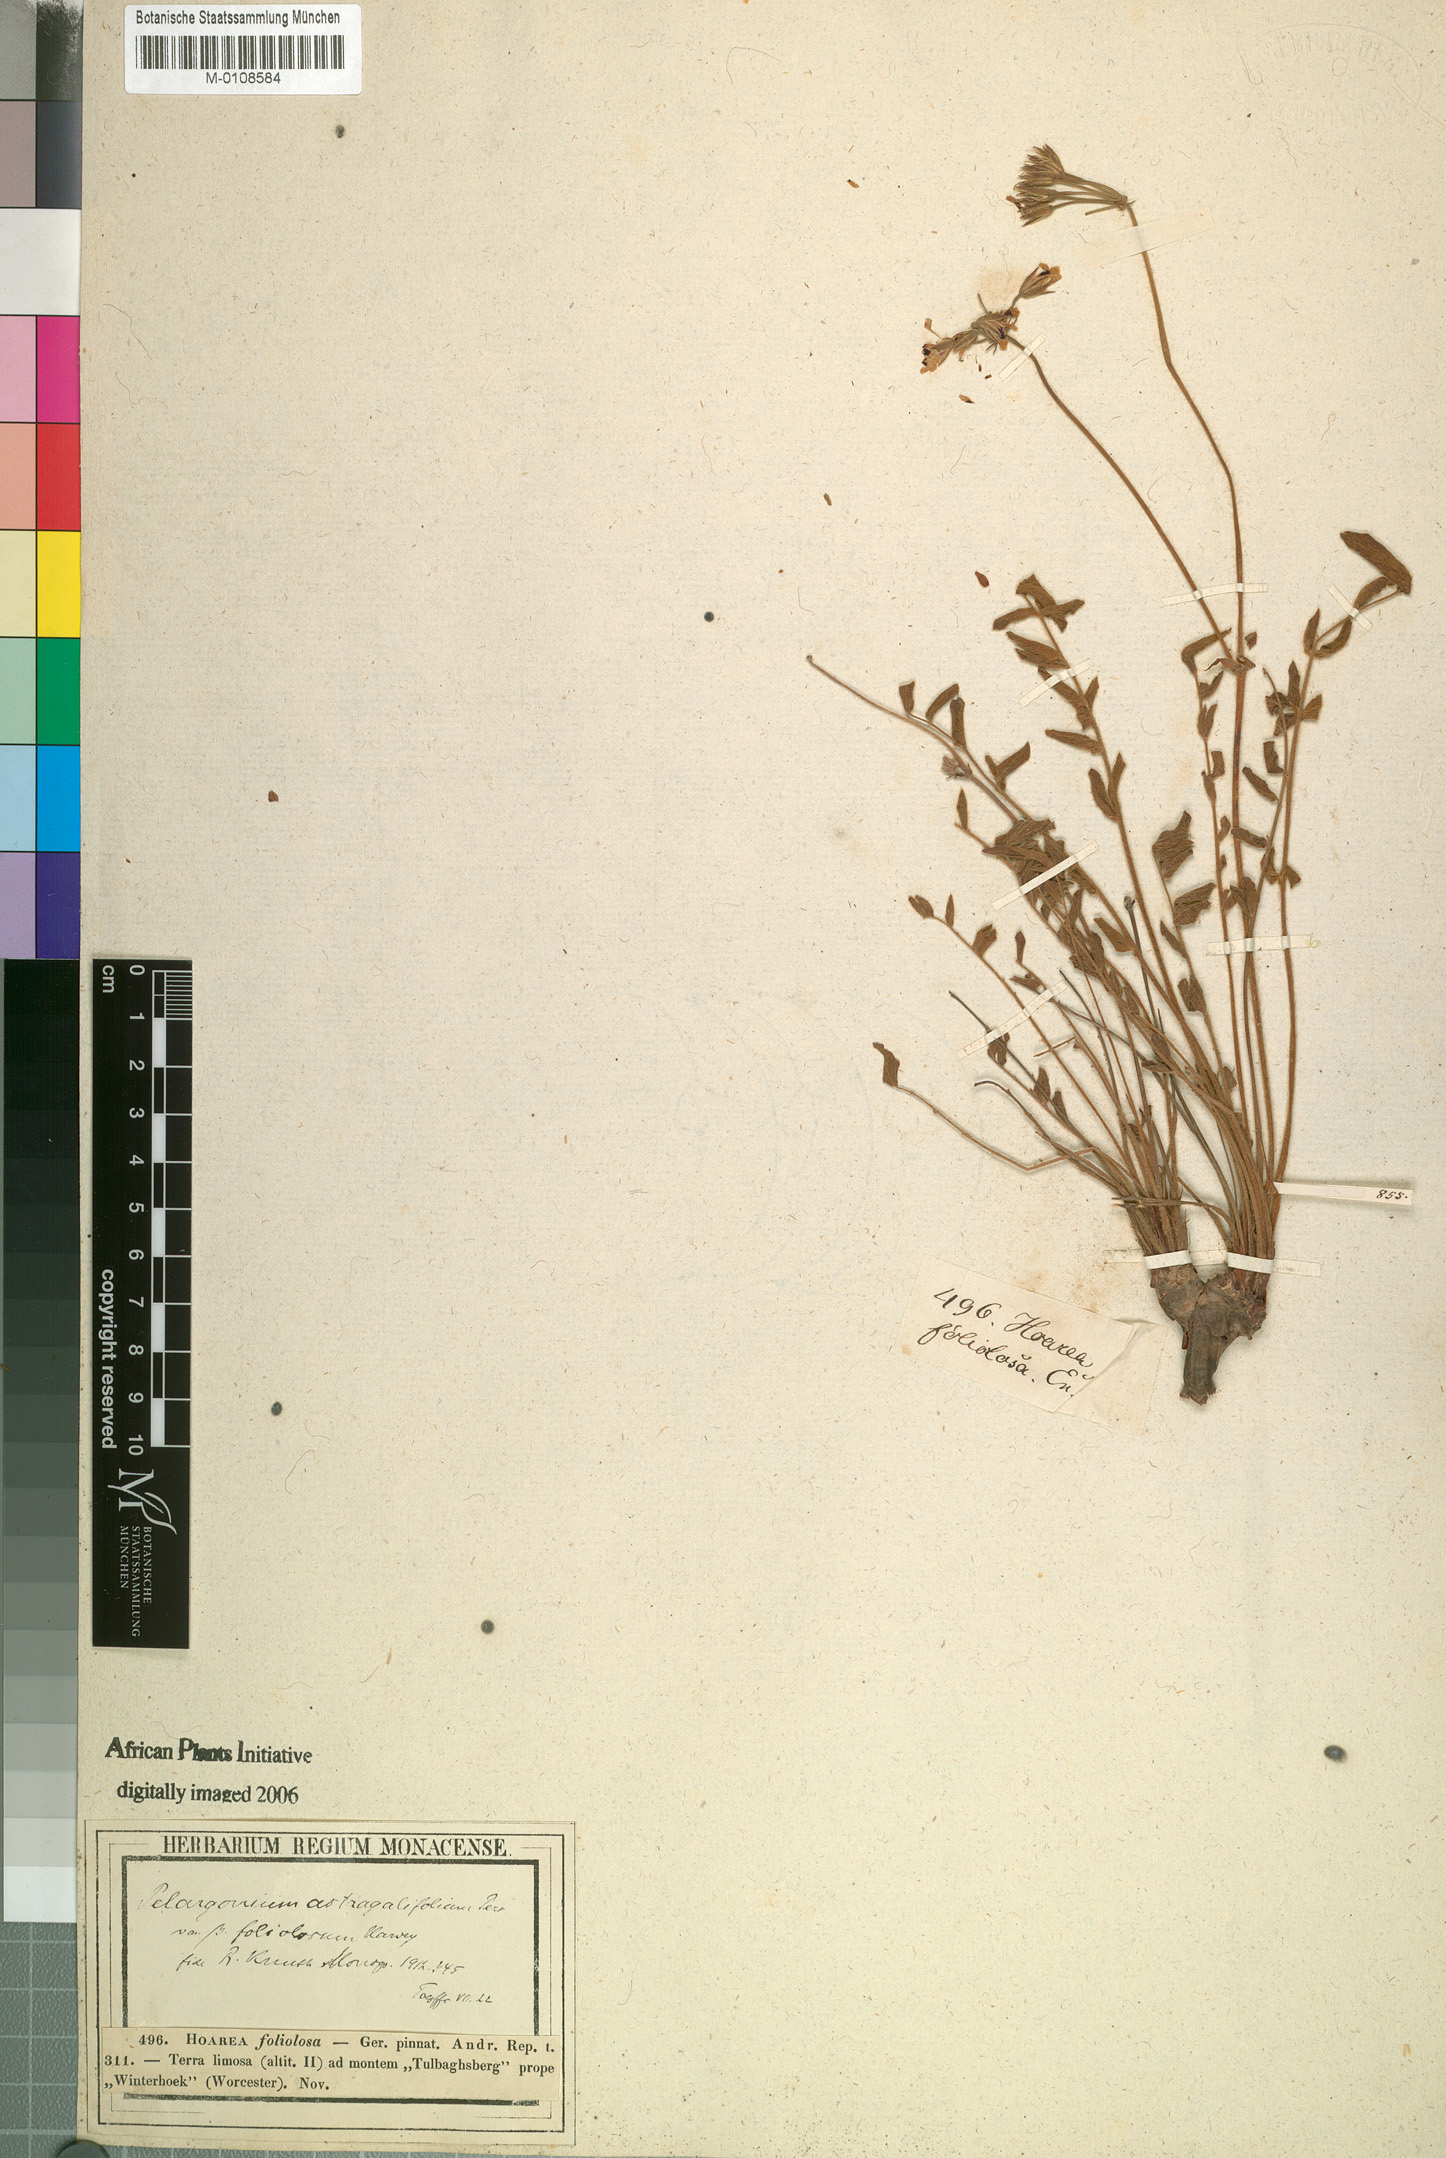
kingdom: Plantae
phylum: Tracheophyta
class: Magnoliopsida
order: Geraniales
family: Geraniaceae
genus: Pelargonium
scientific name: Pelargonium viciifolium
